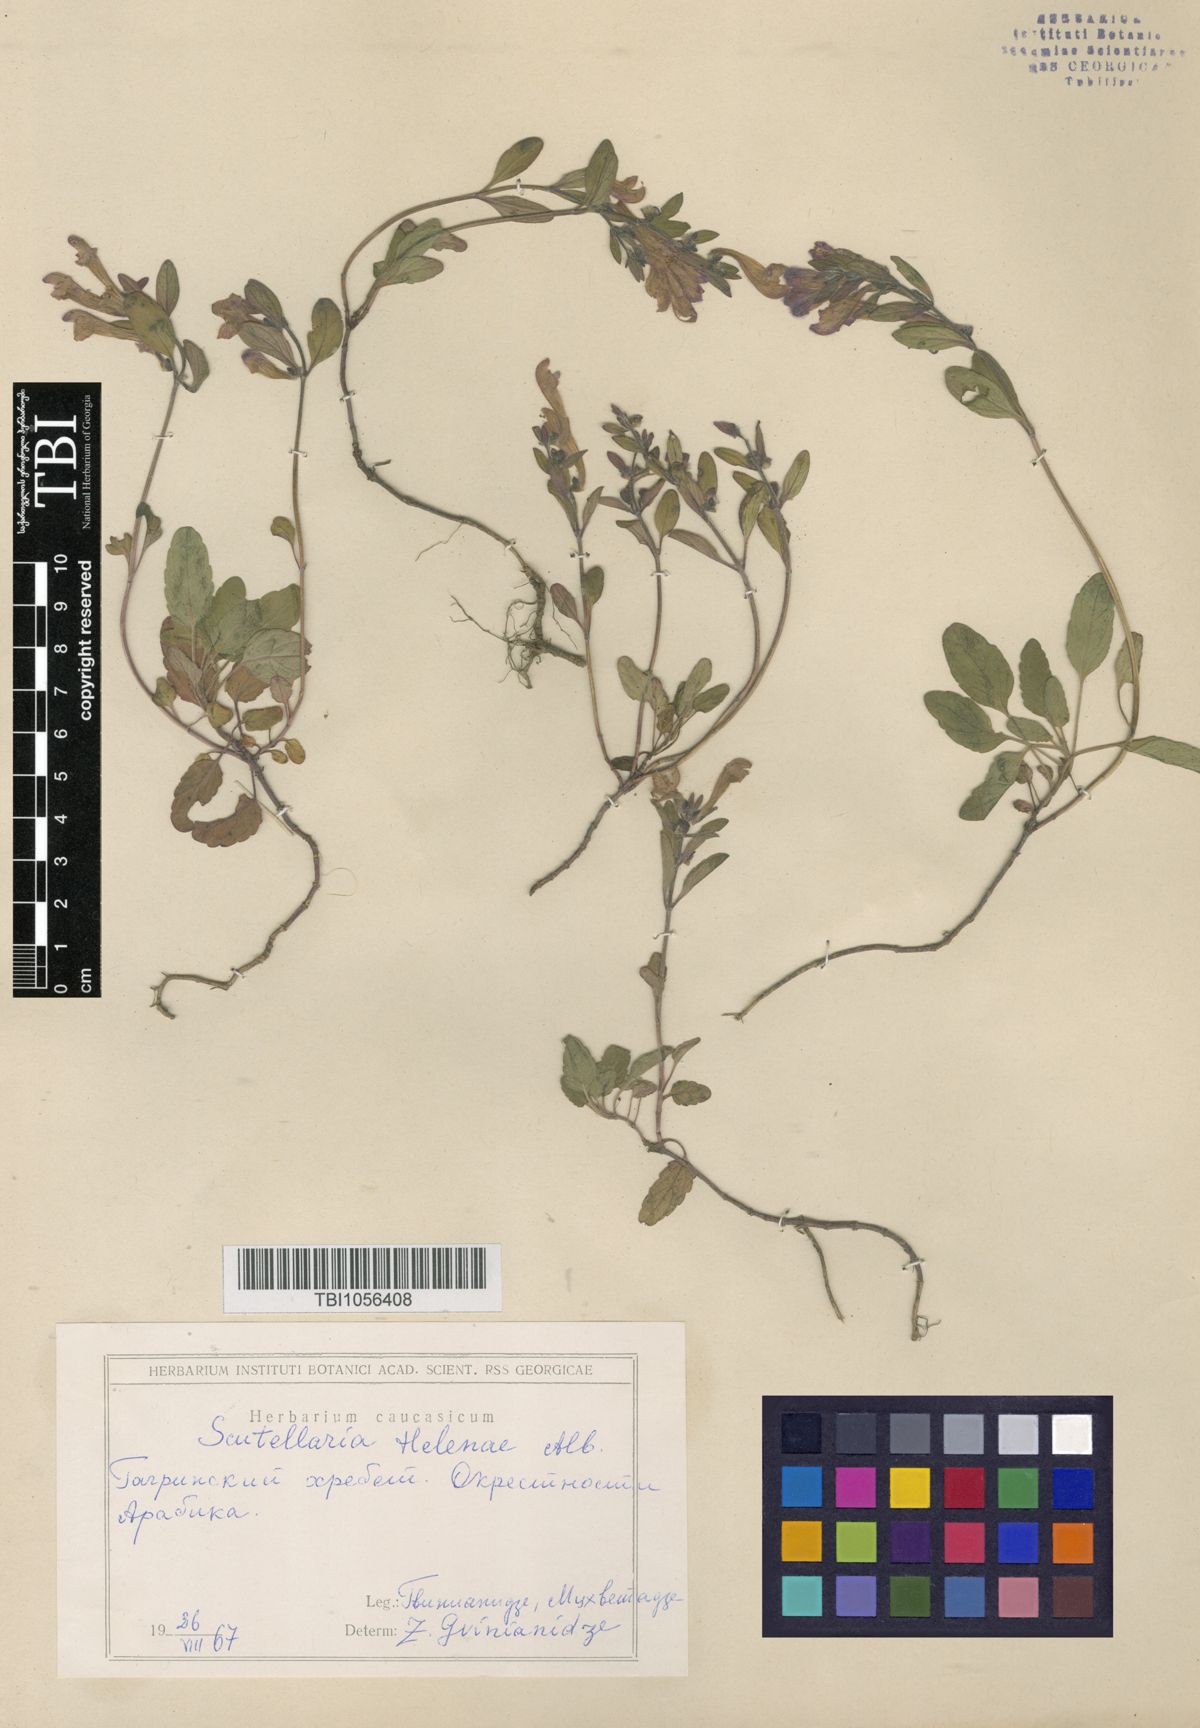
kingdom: Plantae
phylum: Tracheophyta
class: Magnoliopsida
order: Lamiales
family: Lamiaceae
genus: Scutellaria
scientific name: Scutellaria helenae
